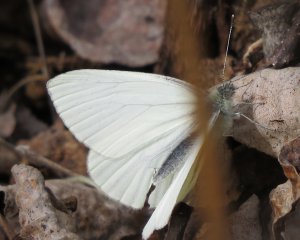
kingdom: Animalia
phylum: Arthropoda
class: Insecta
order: Lepidoptera
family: Pieridae
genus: Pieris
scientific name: Pieris oleracea
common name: Mustard White
